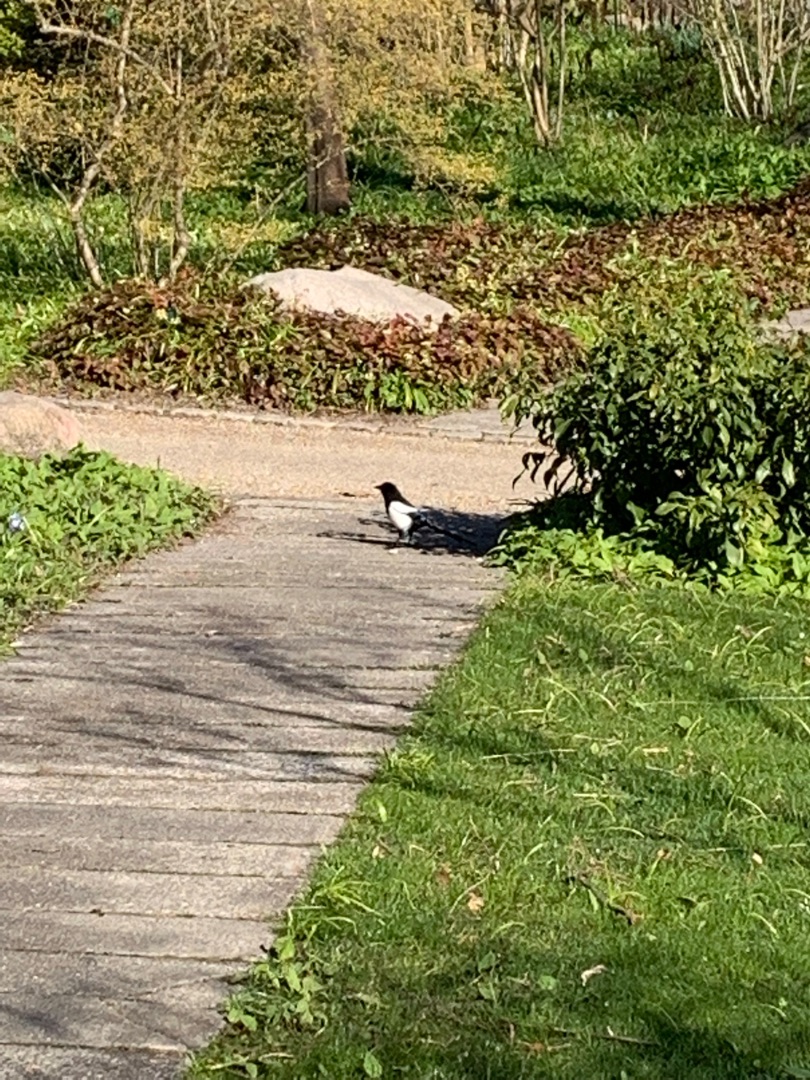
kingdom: Animalia
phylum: Chordata
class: Aves
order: Passeriformes
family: Corvidae
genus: Pica
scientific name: Pica pica
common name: Husskade
